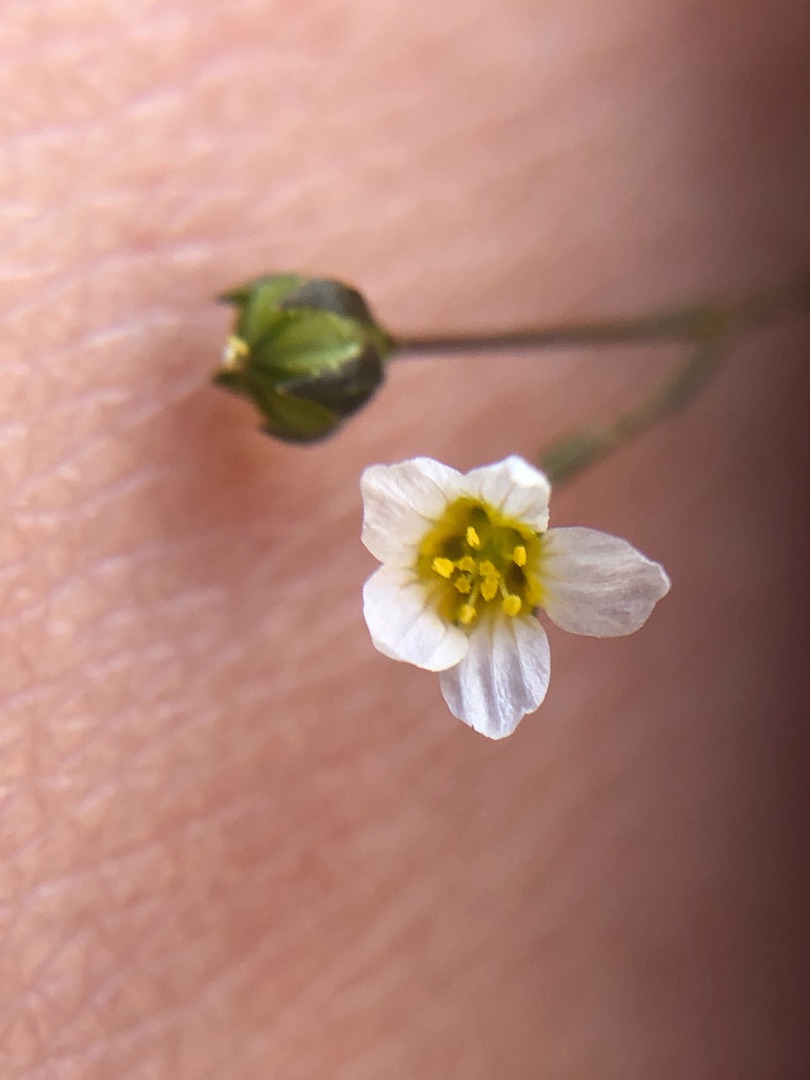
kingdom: Plantae
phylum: Tracheophyta
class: Magnoliopsida
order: Malpighiales
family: Linaceae
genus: Linum
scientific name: Linum catharticum
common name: Vild hør
